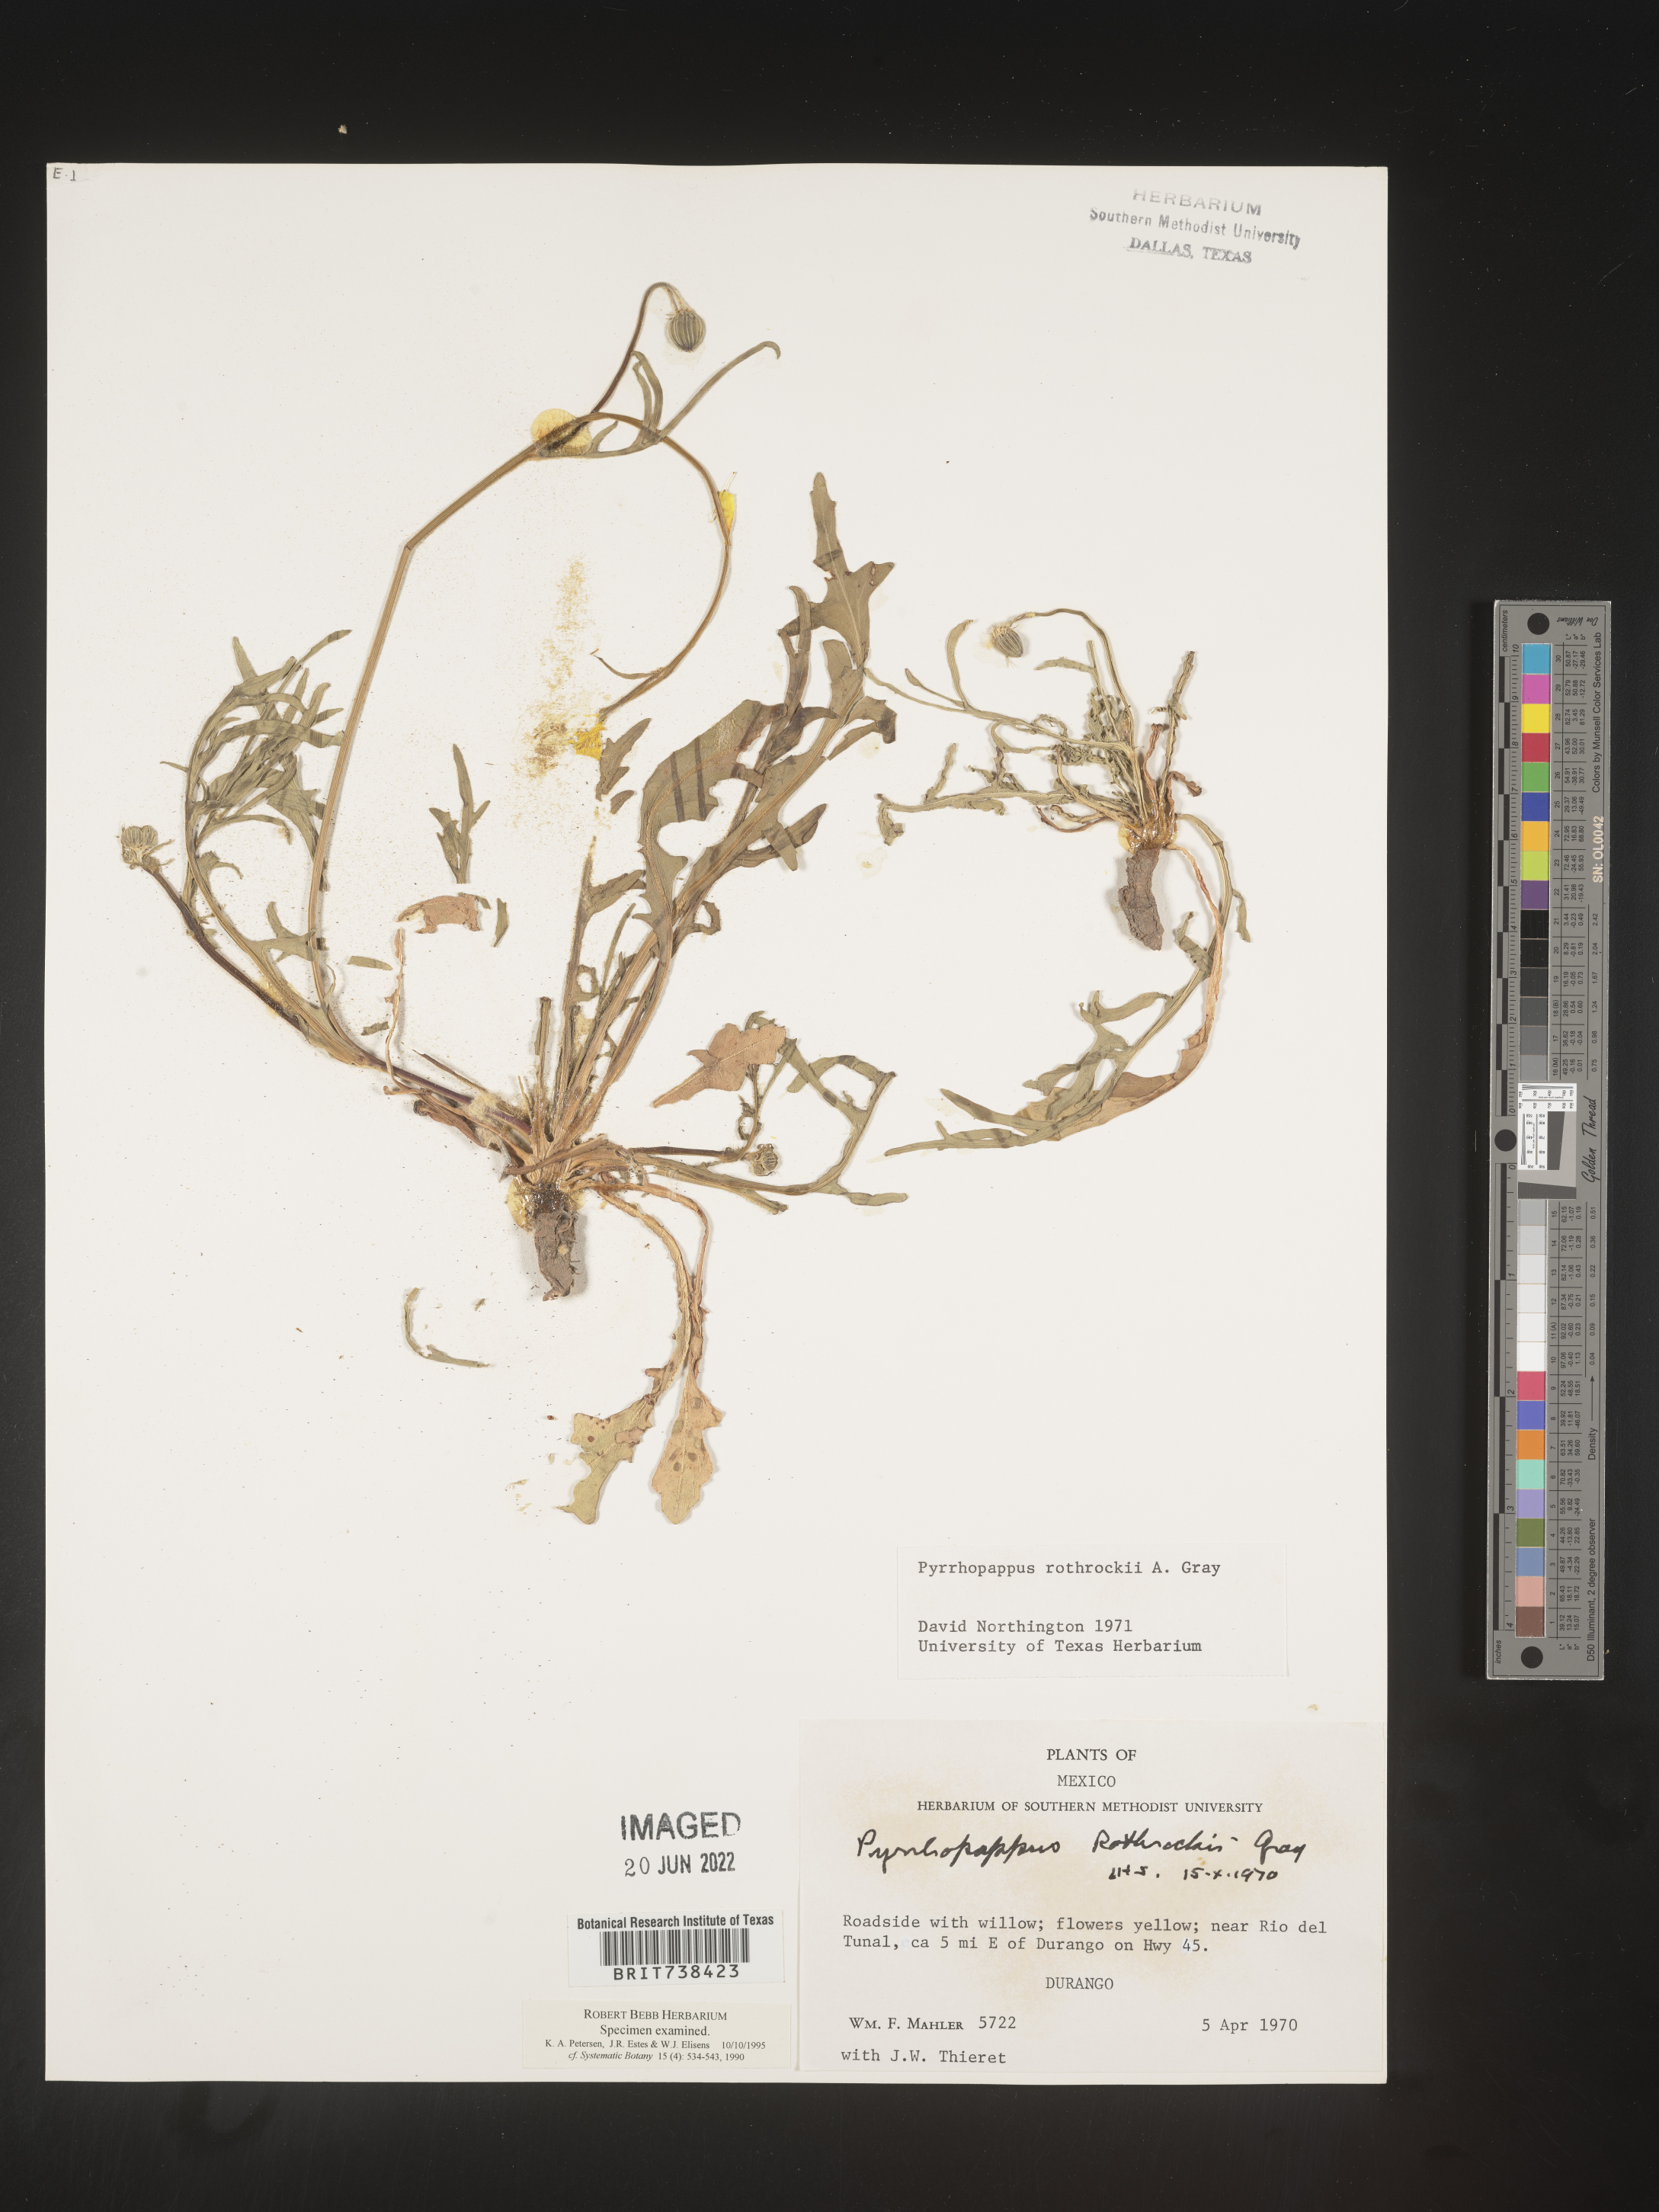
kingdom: Plantae
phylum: Tracheophyta
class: Magnoliopsida
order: Asterales
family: Asteraceae
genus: Pyrrhopappus
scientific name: Pyrrhopappus
